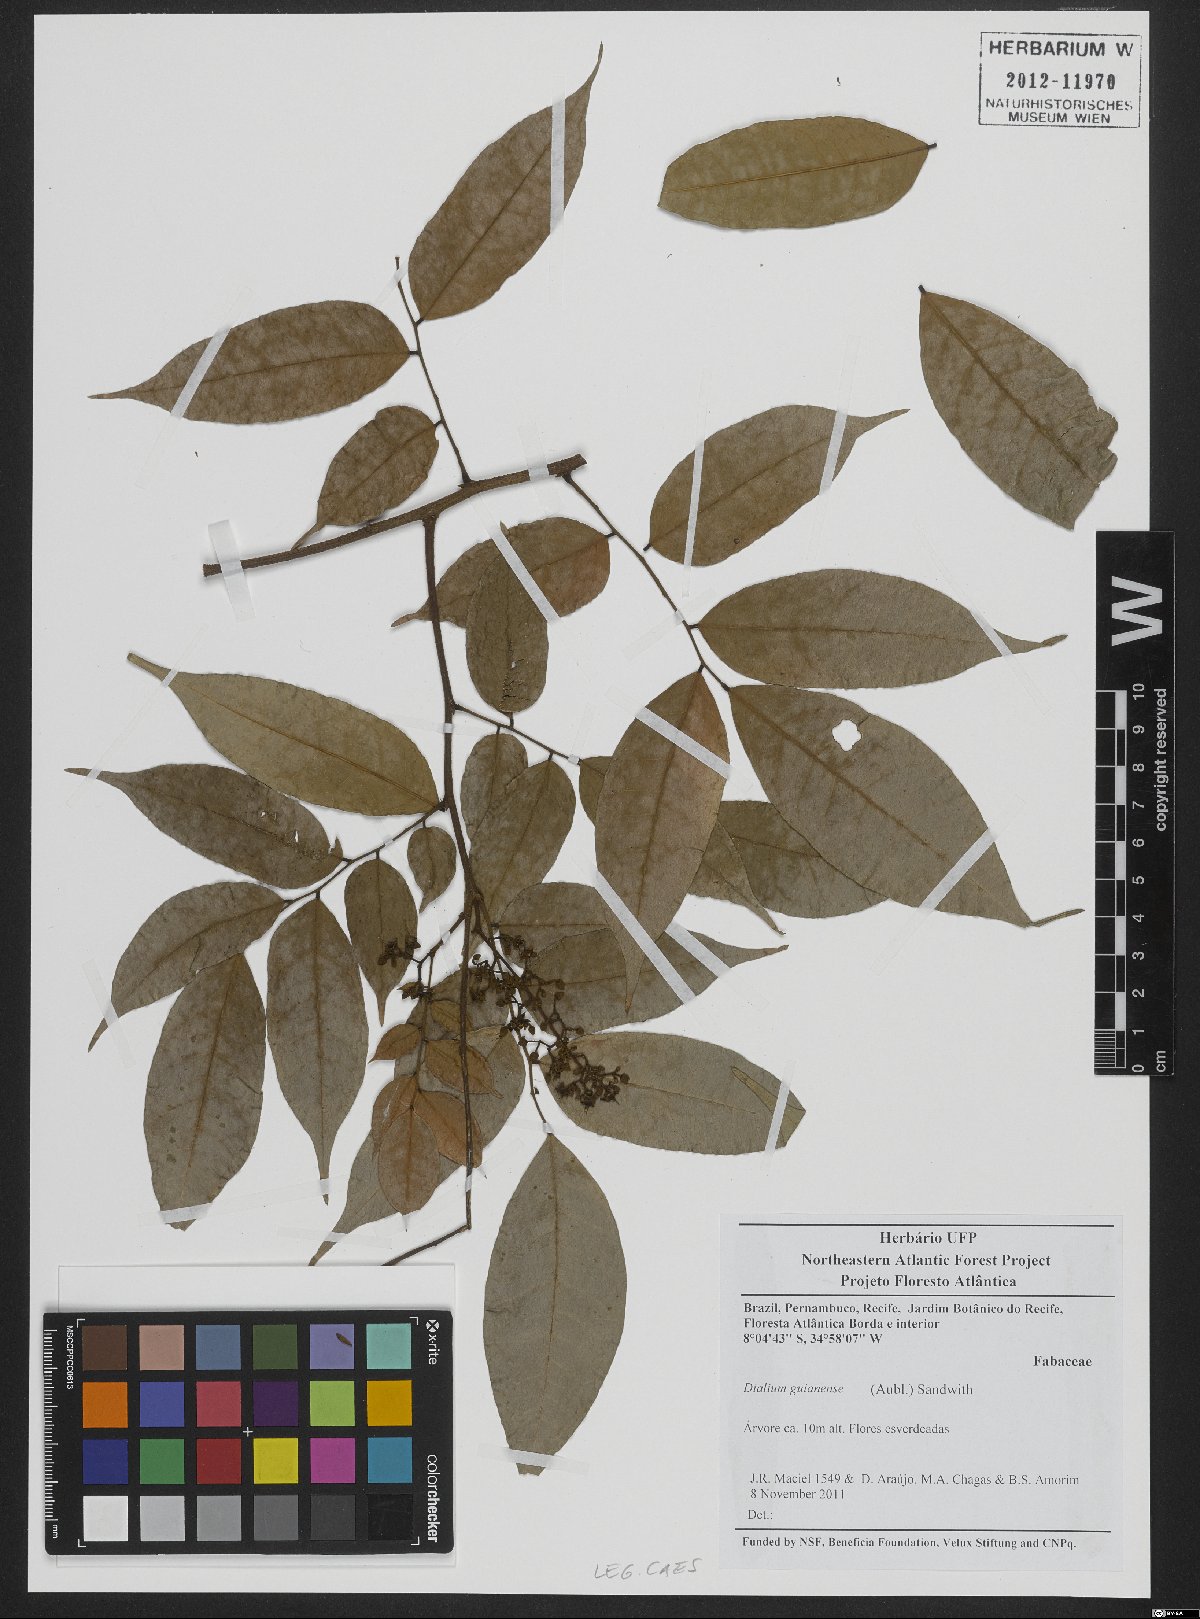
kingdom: Plantae
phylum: Tracheophyta
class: Magnoliopsida
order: Fabales
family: Fabaceae
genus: Dialium
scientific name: Dialium guianense
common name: Ironwood
